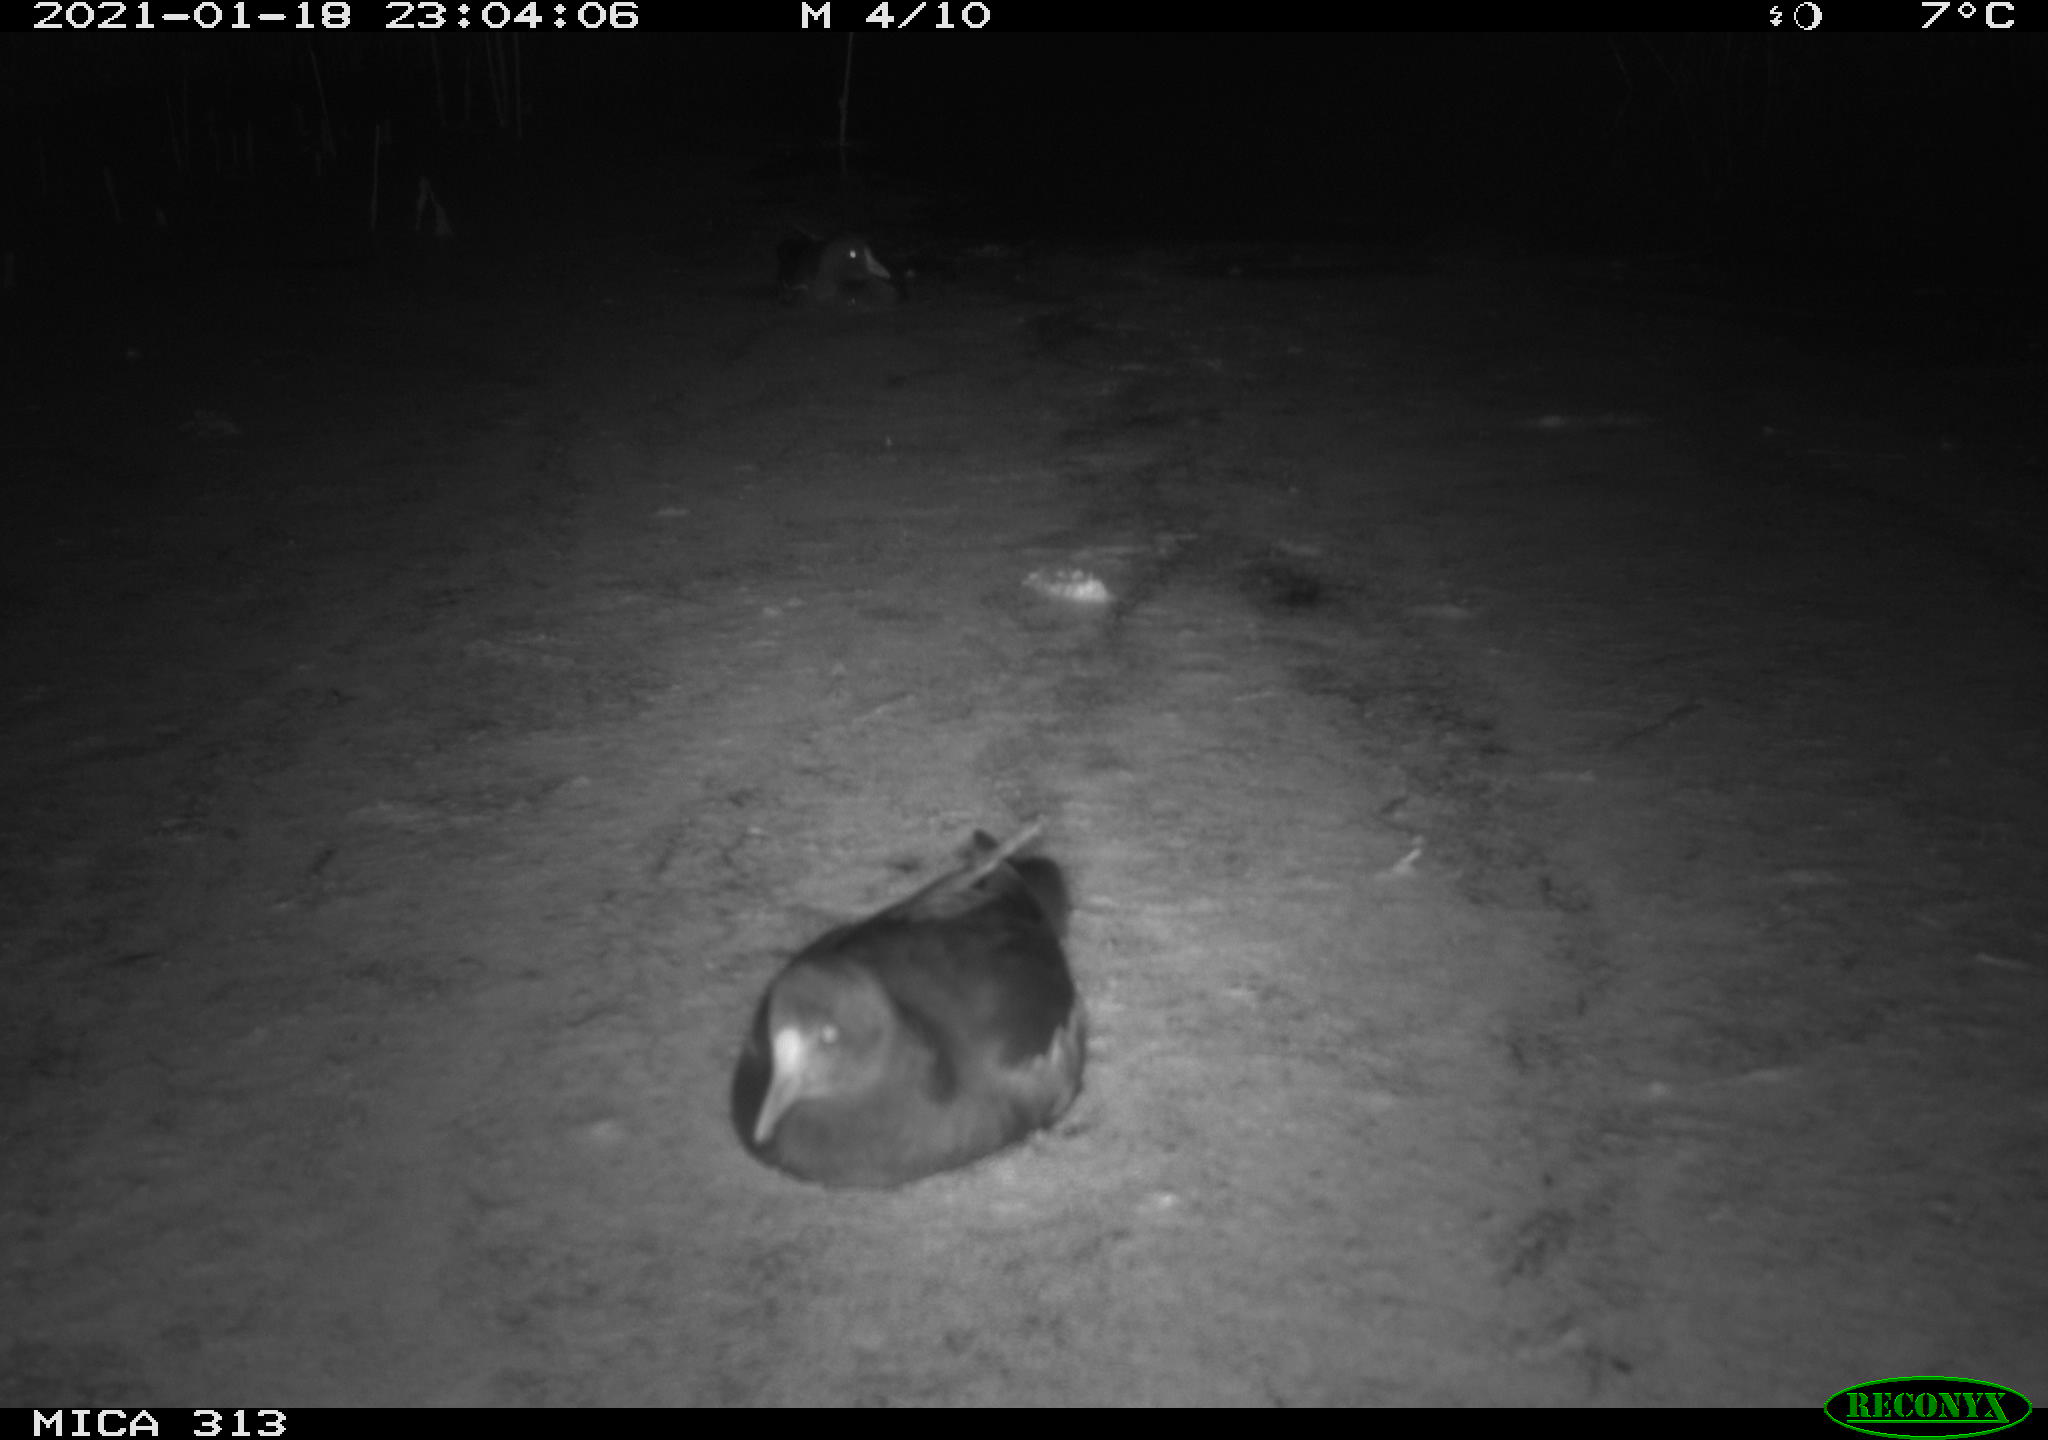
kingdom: Animalia
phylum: Chordata
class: Aves
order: Gruiformes
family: Rallidae
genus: Fulica
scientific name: Fulica atra
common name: Eurasian coot
